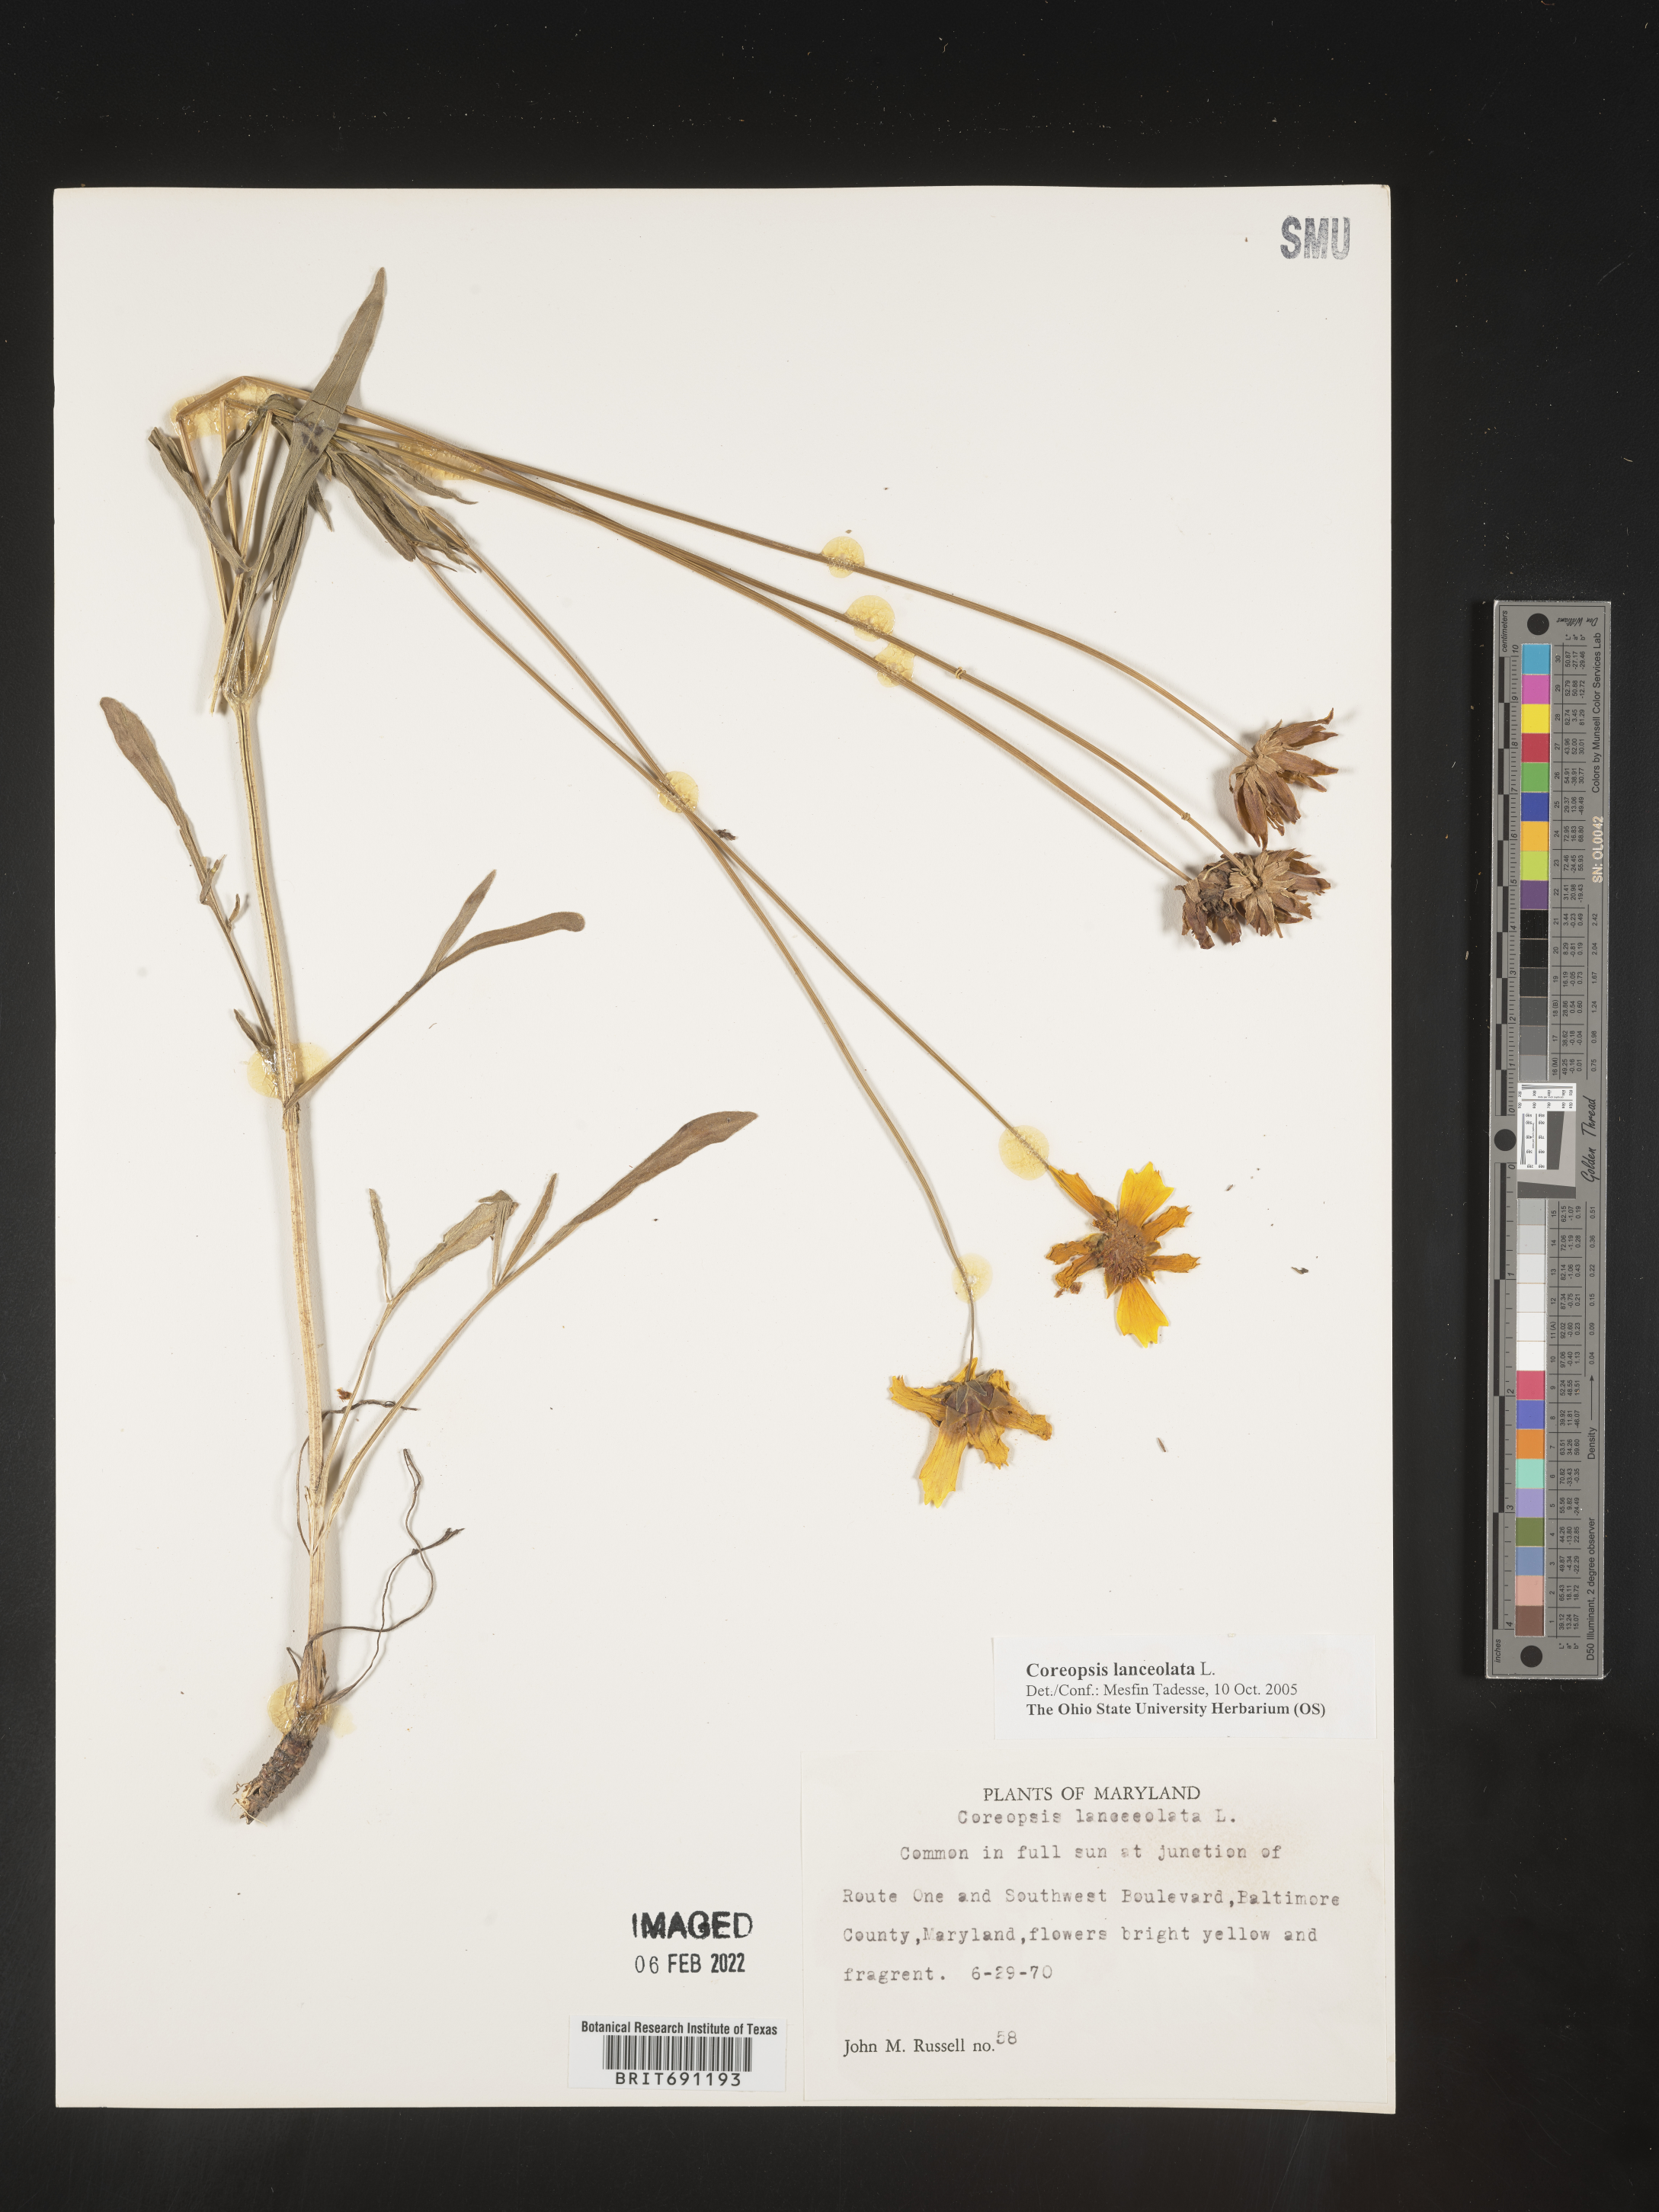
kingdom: Plantae
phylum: Tracheophyta
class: Magnoliopsida
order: Asterales
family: Asteraceae
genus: Coreopsis
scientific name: Coreopsis lanceolata
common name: Garden coreopsis
